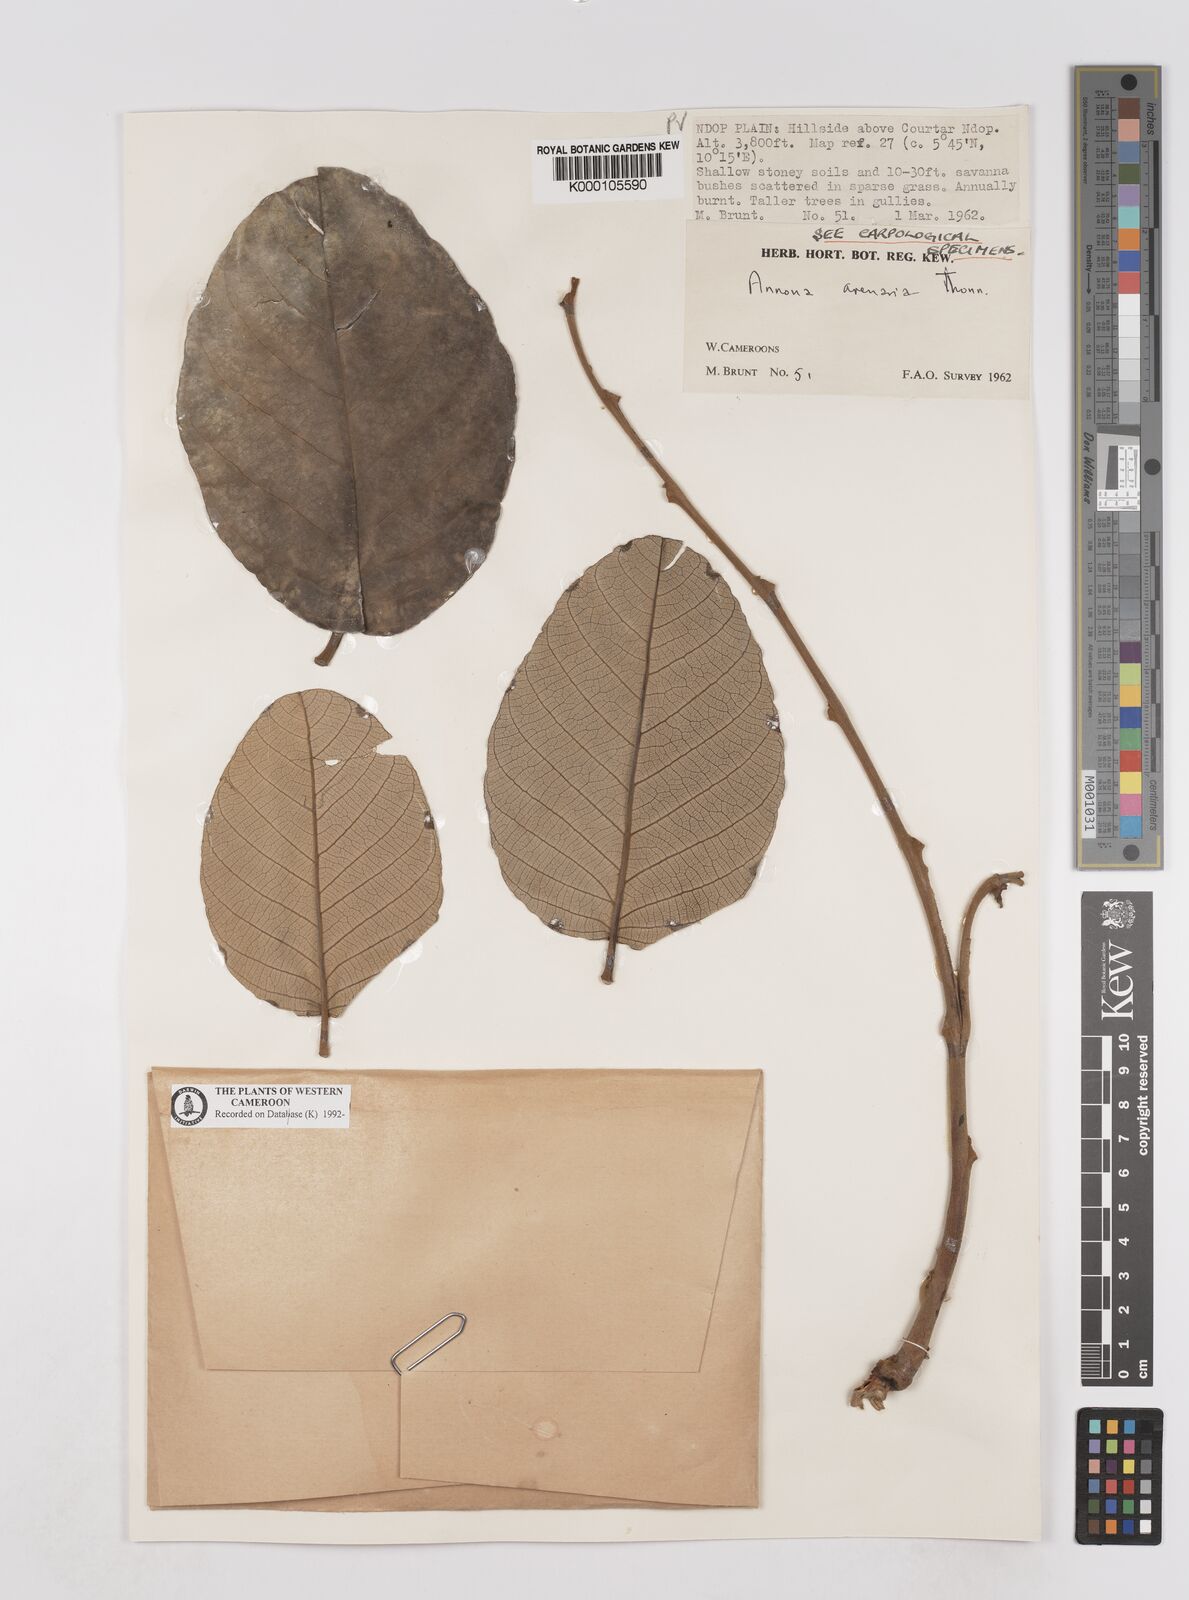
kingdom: Plantae
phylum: Tracheophyta
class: Magnoliopsida
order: Magnoliales
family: Annonaceae
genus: Annona
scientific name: Annona senegalensis
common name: Wild custard-apple
